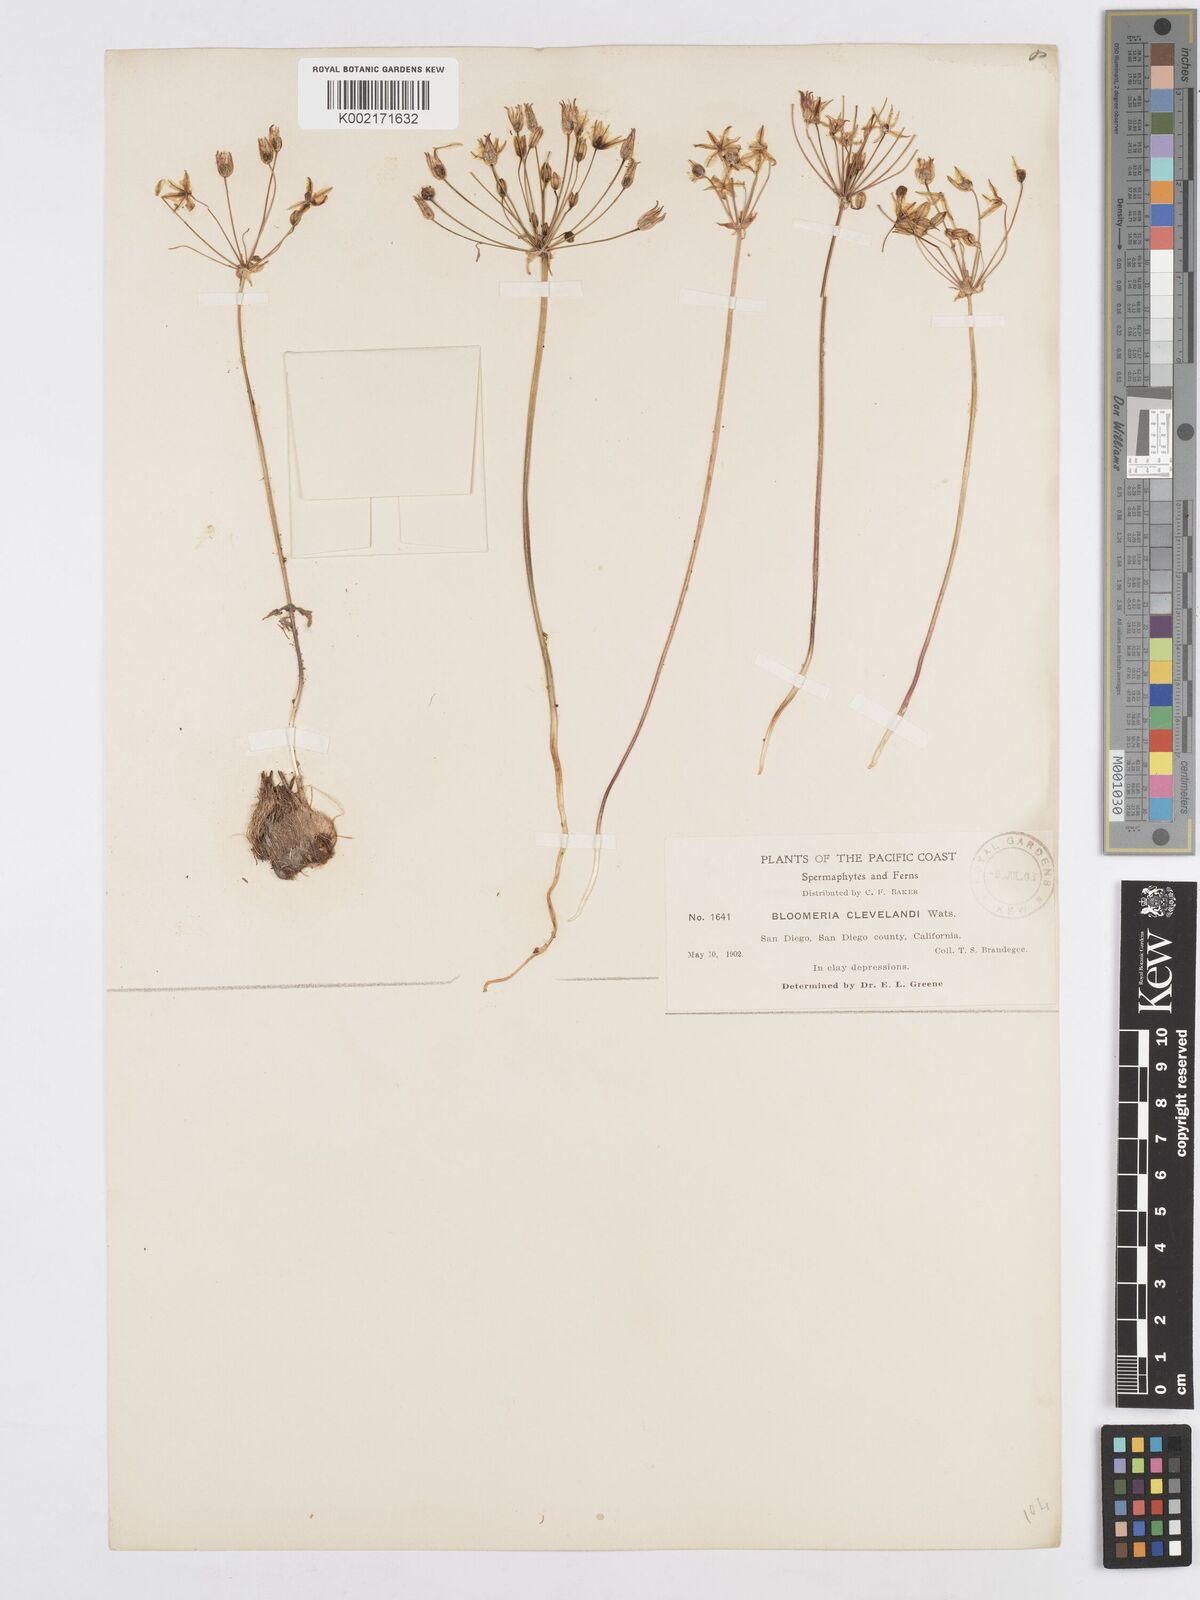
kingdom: Plantae
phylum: Tracheophyta
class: Liliopsida
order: Asparagales
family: Asparagaceae
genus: Bloomeria
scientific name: Bloomeria clevelandii
